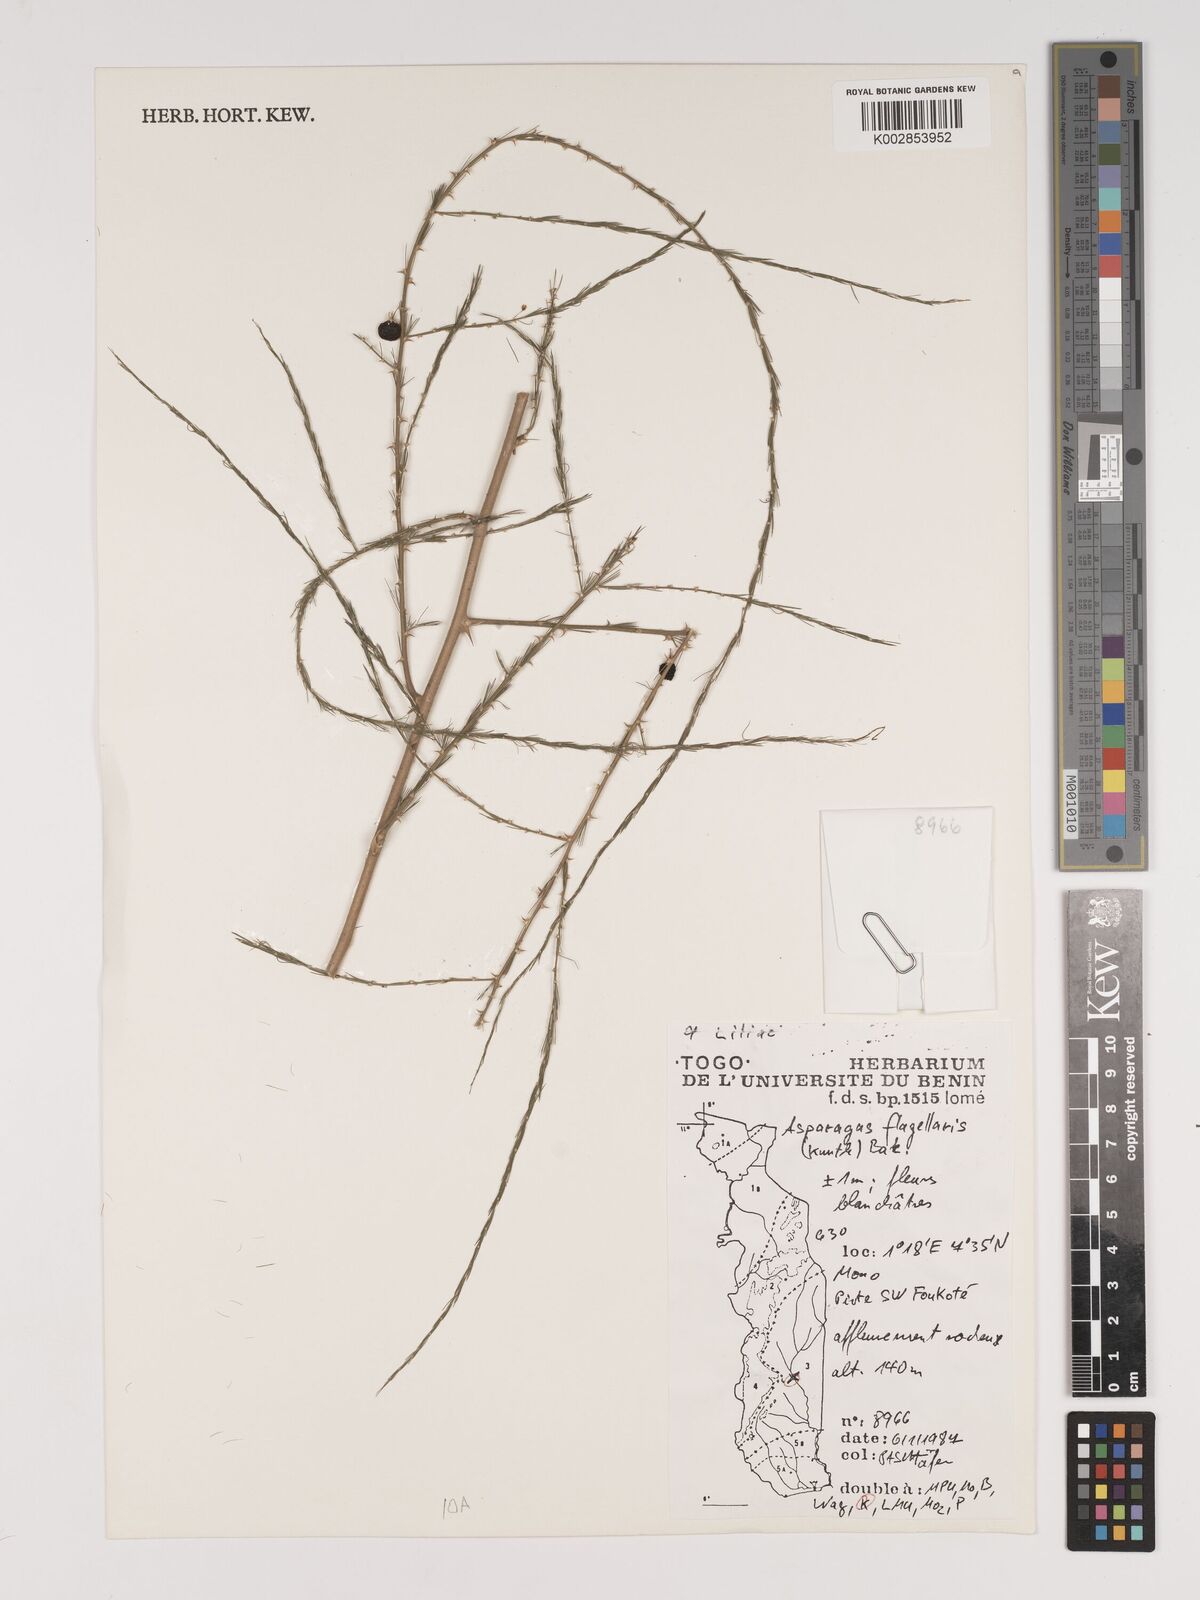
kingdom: Plantae
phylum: Tracheophyta
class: Liliopsida
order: Asparagales
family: Asparagaceae
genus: Asparagus
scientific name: Asparagus flagellaris
